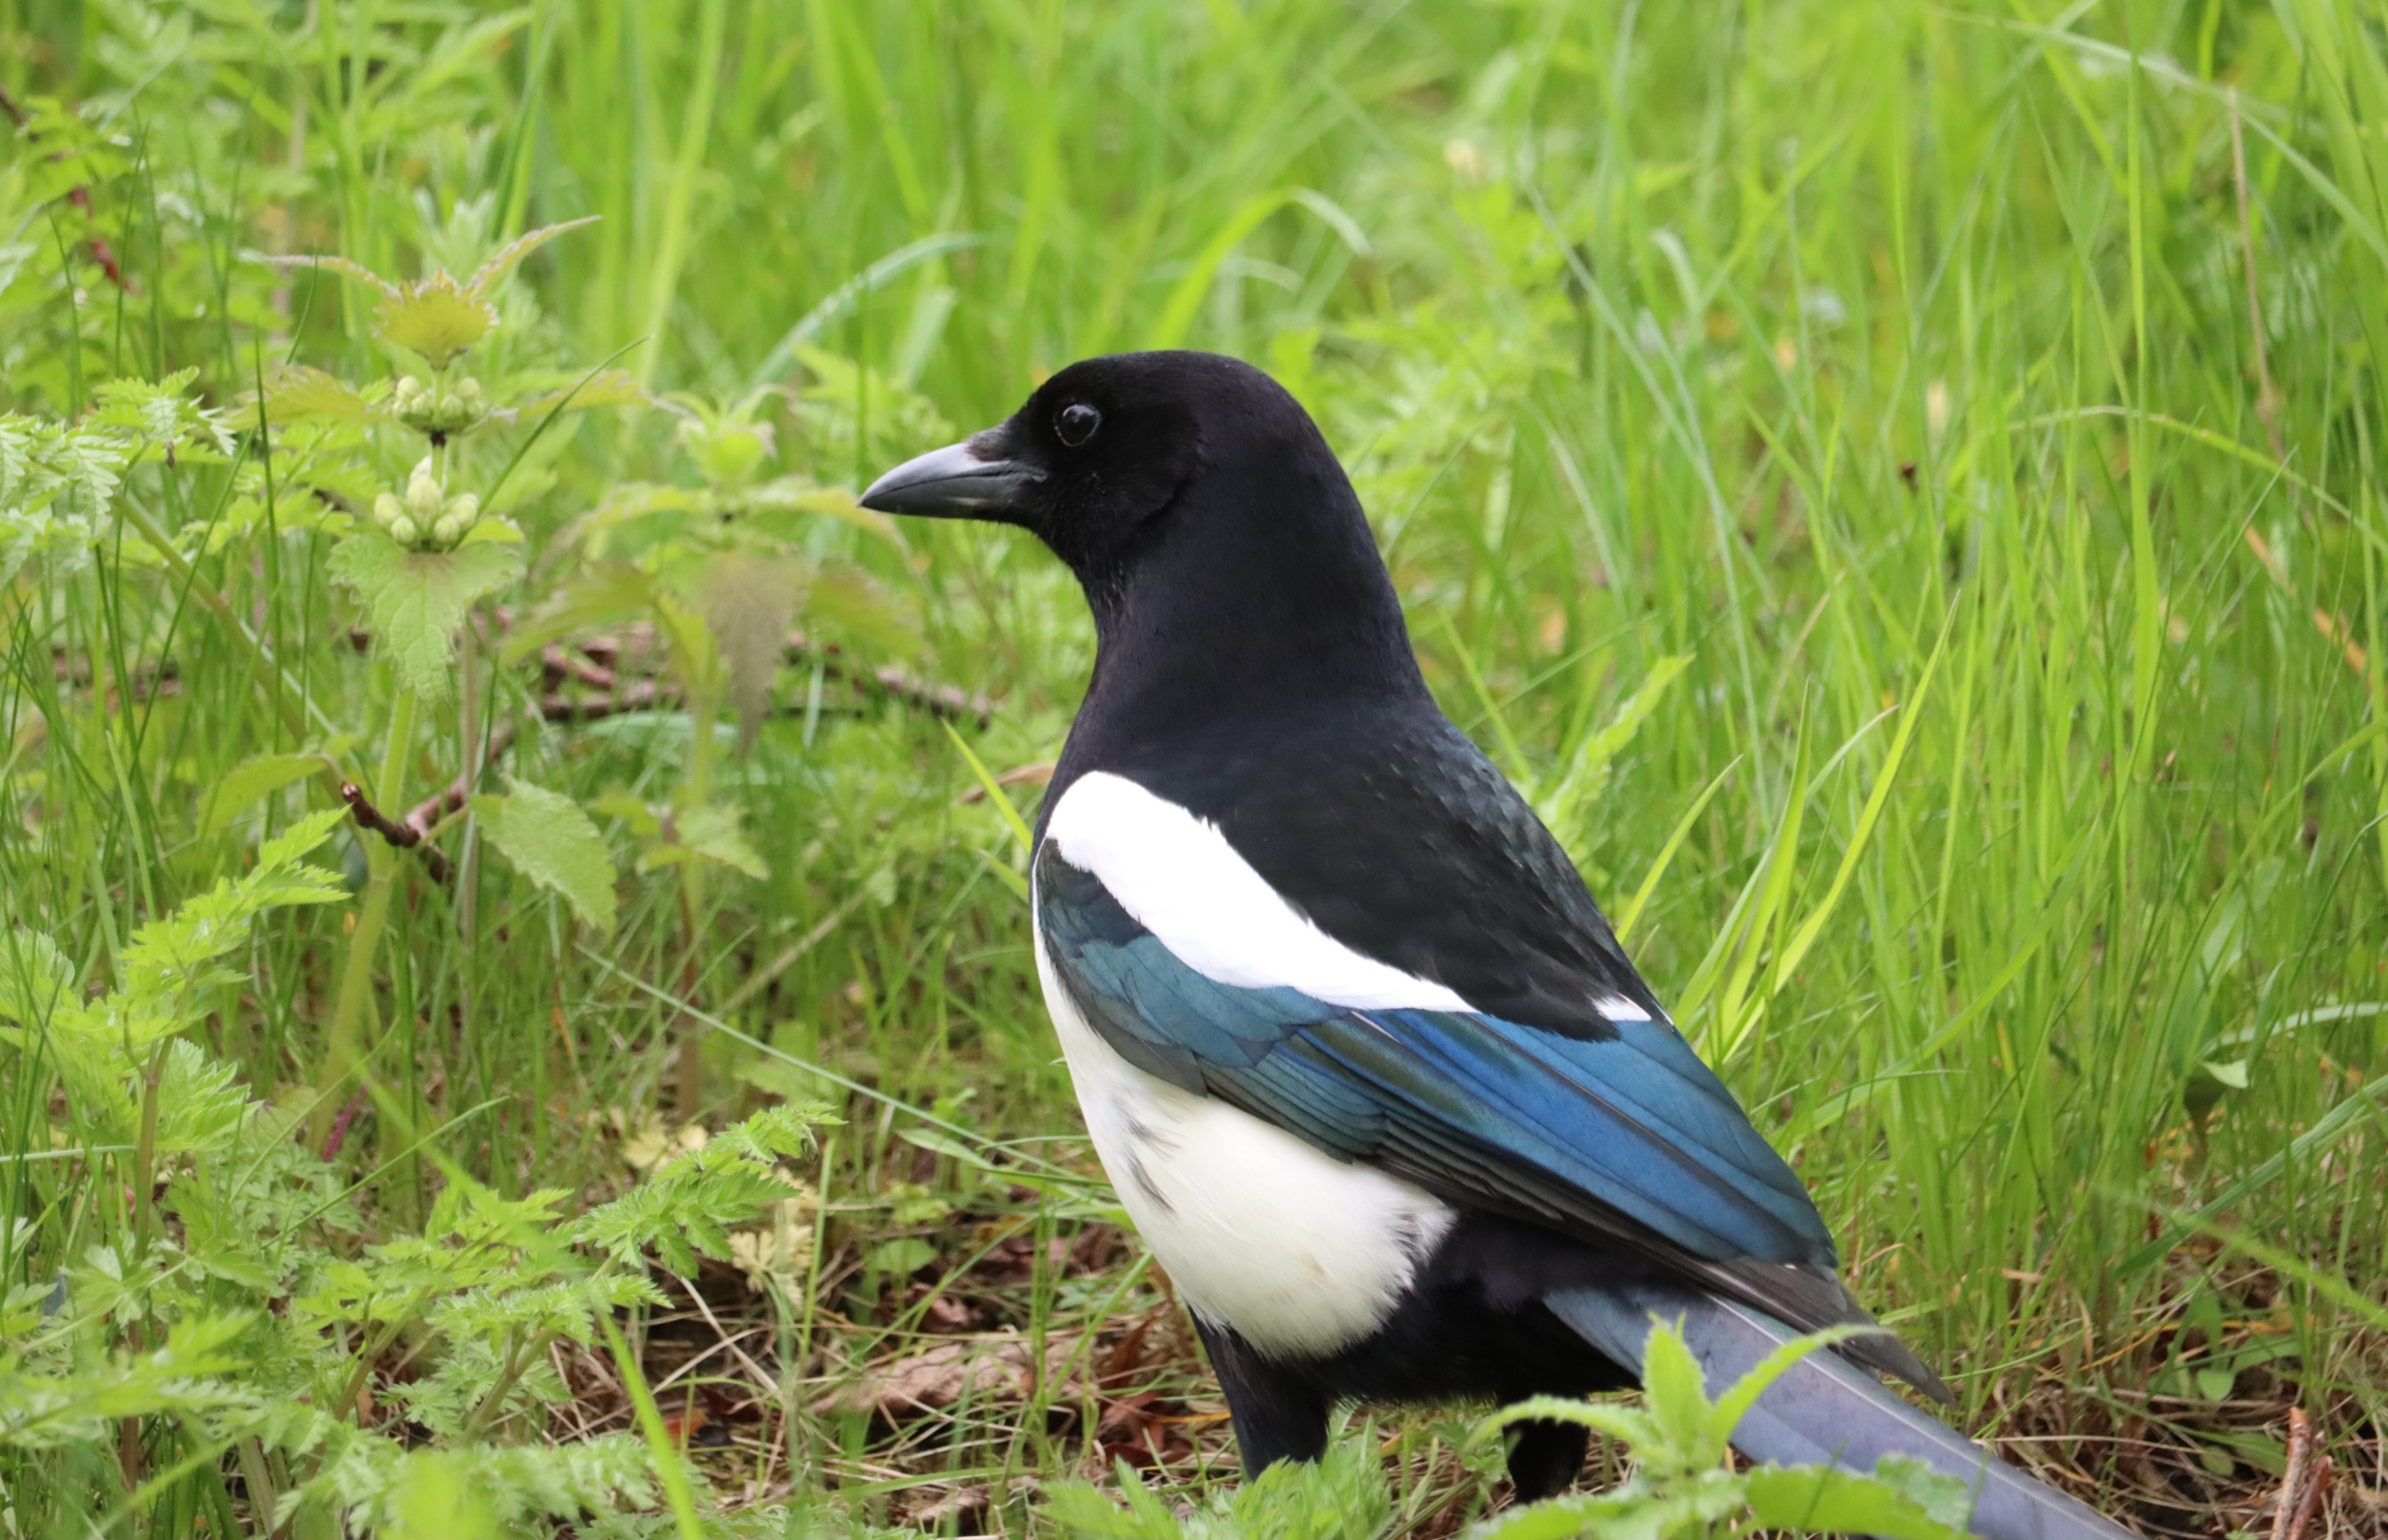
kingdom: Animalia
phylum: Chordata
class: Aves
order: Passeriformes
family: Corvidae
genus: Pica
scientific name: Pica pica
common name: Husskade
